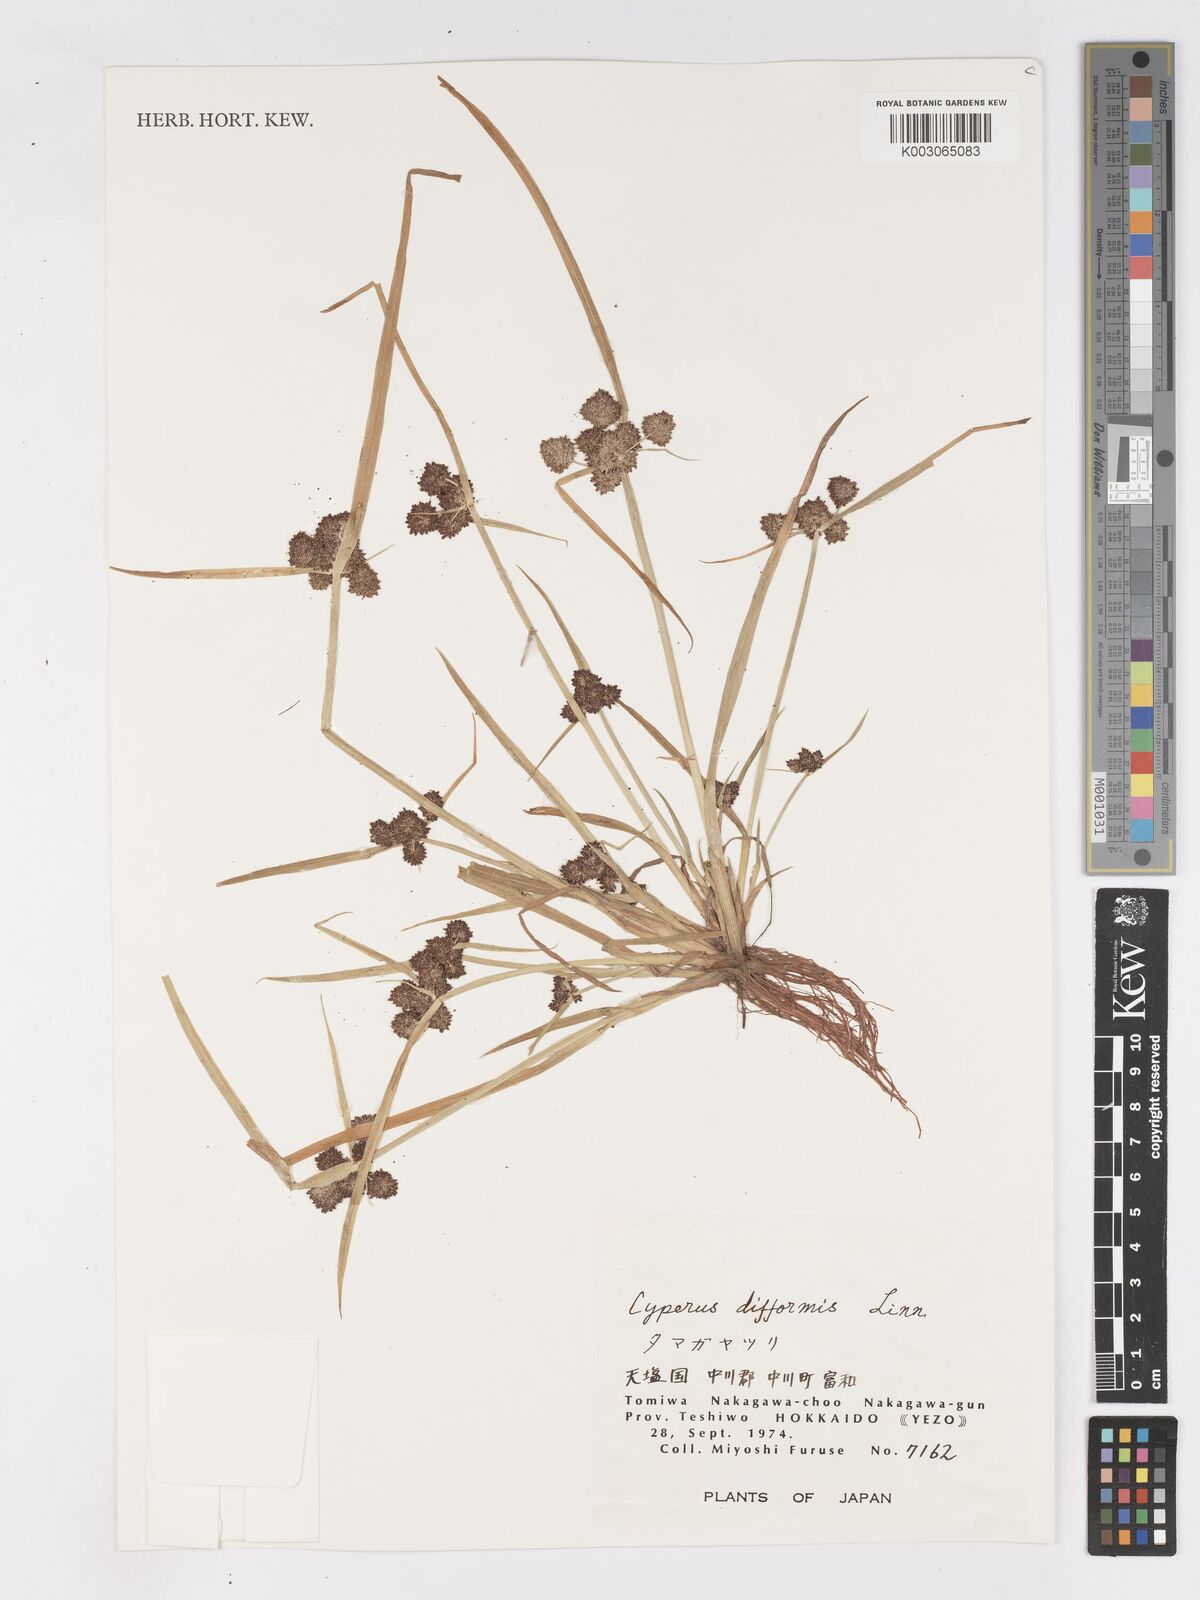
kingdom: Plantae
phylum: Tracheophyta
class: Liliopsida
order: Poales
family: Cyperaceae
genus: Cyperus
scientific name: Cyperus difformis
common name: Variable flatsedge
